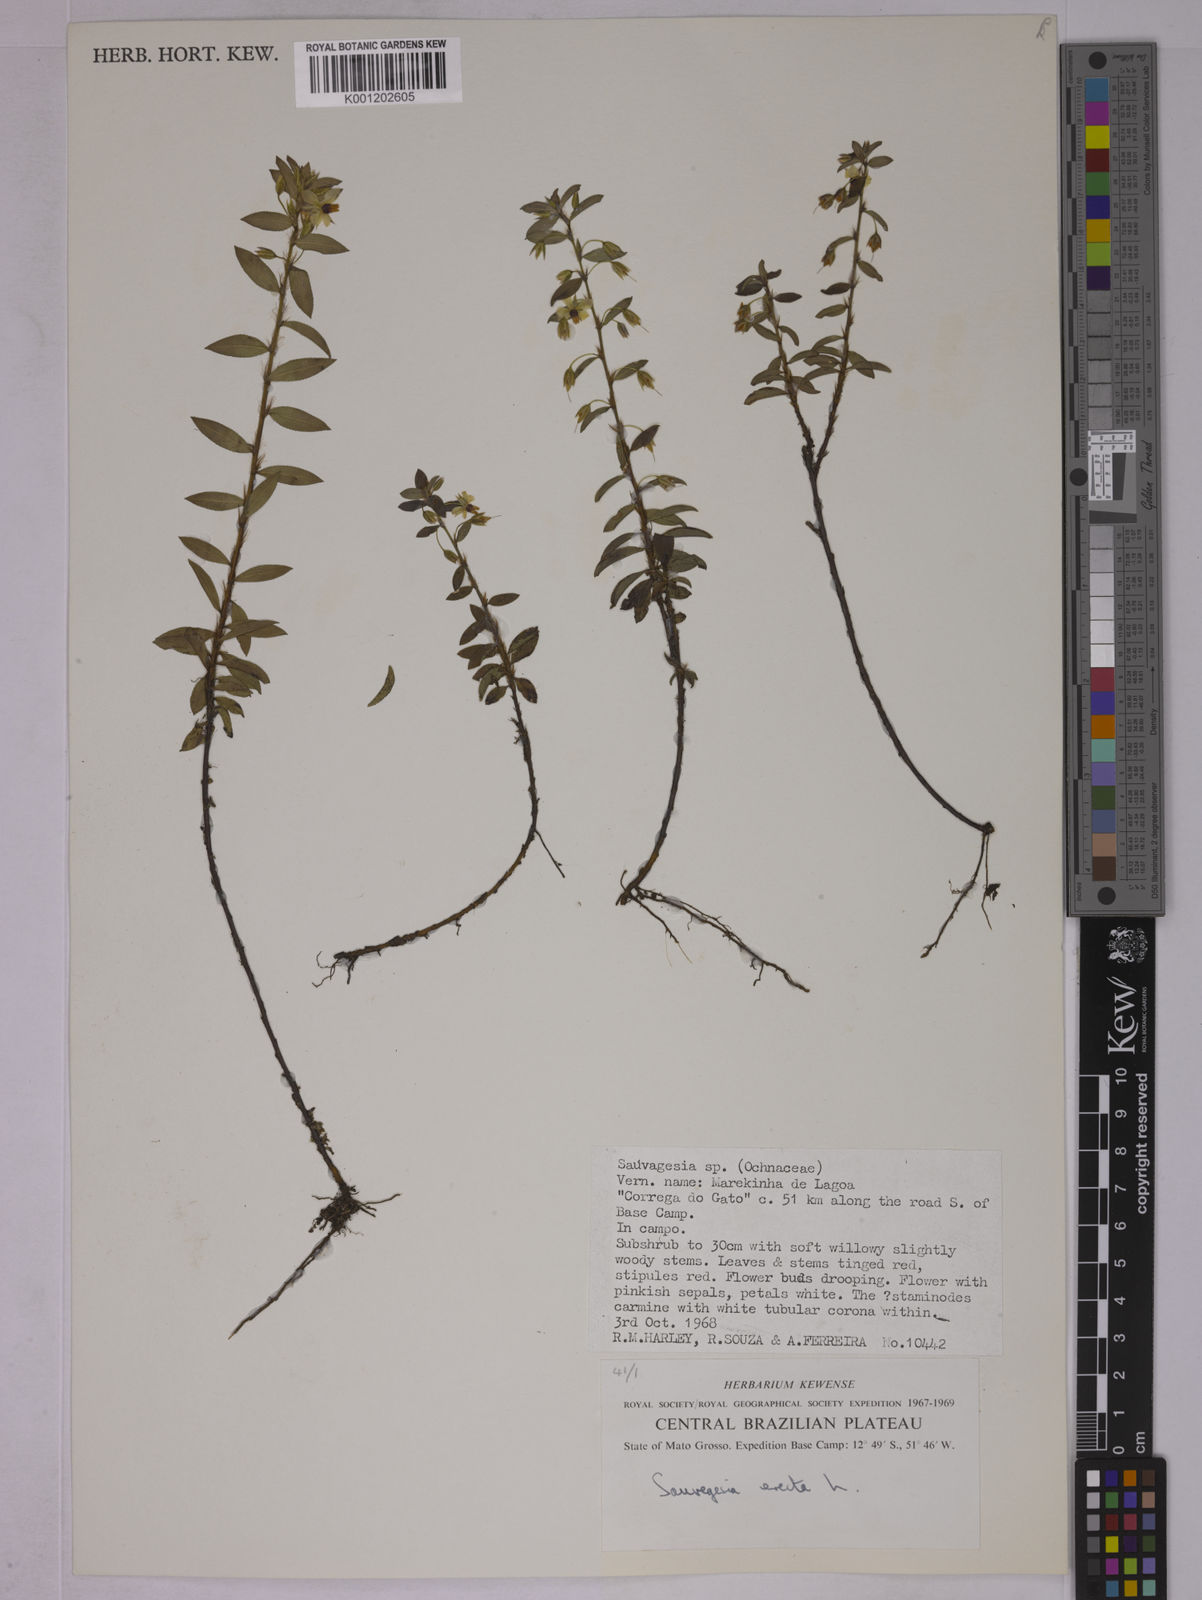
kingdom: Plantae
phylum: Tracheophyta
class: Magnoliopsida
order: Malpighiales
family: Ochnaceae
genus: Sauvagesia
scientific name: Sauvagesia erecta
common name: Creole tea
